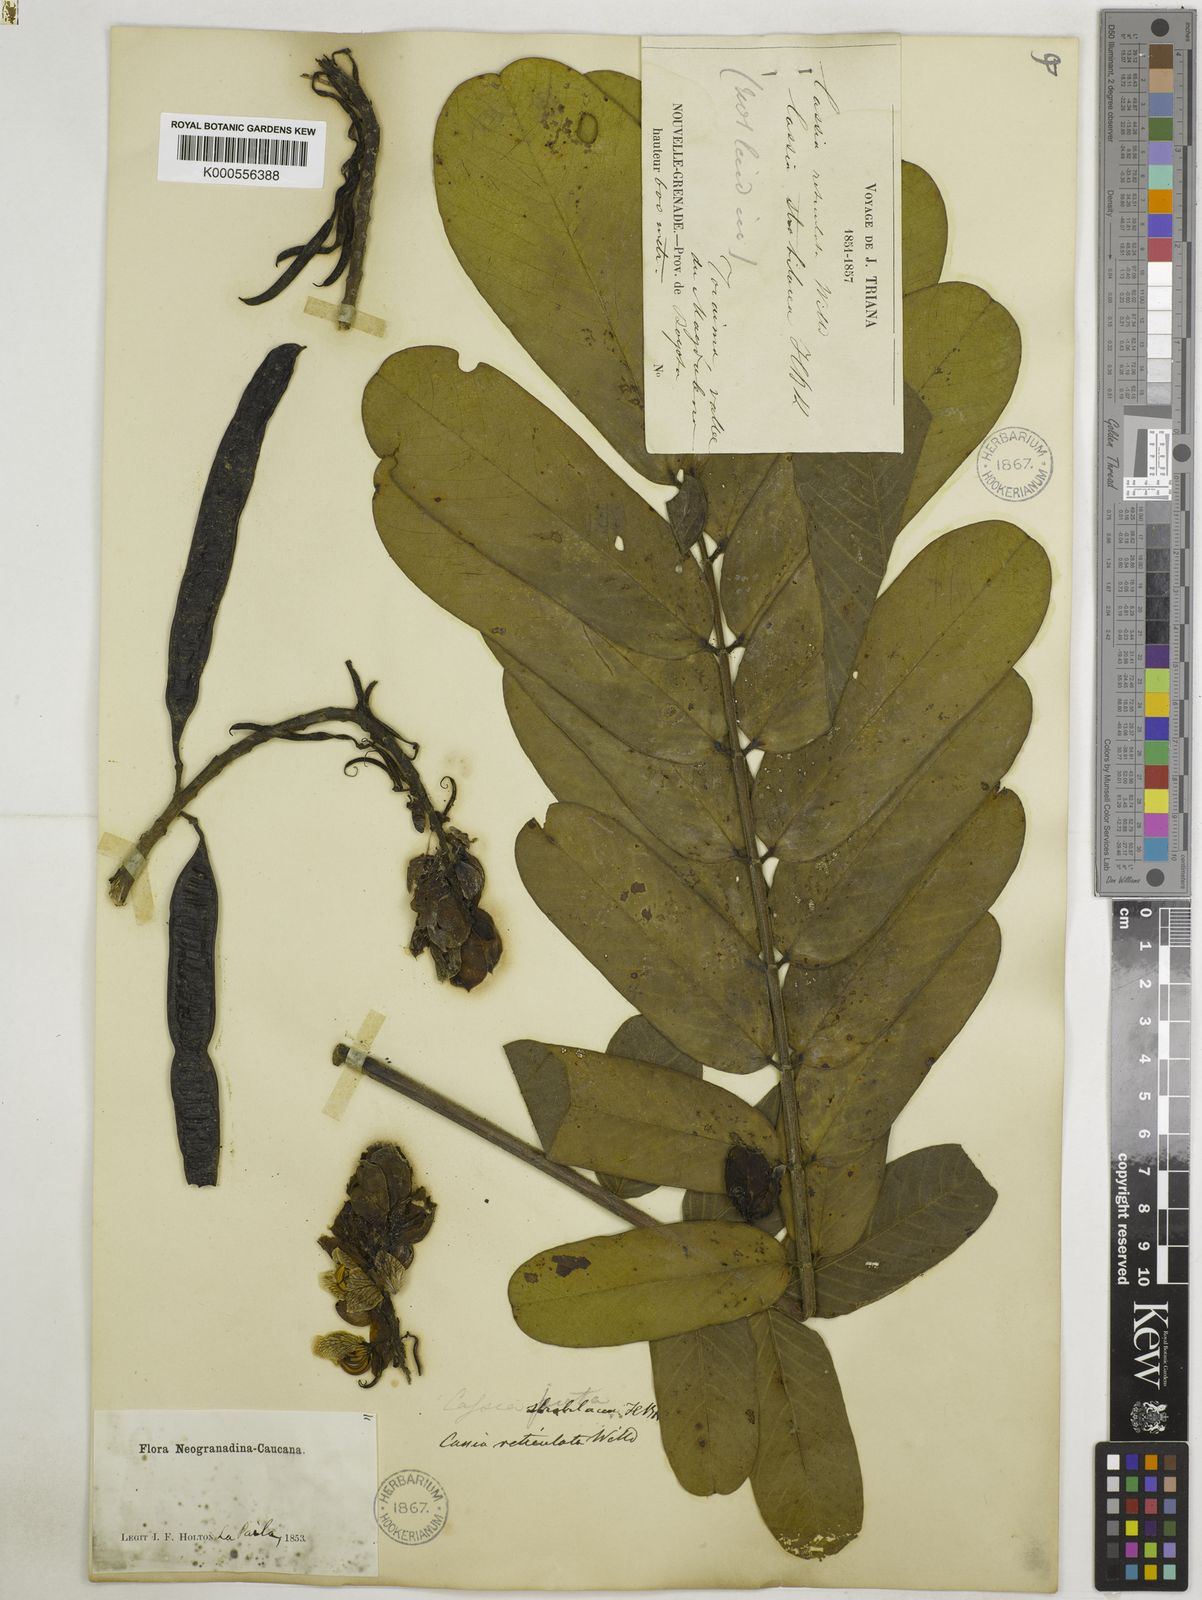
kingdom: Plantae
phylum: Tracheophyta
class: Magnoliopsida
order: Fabales
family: Fabaceae
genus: Senna
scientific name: Senna reticulata
